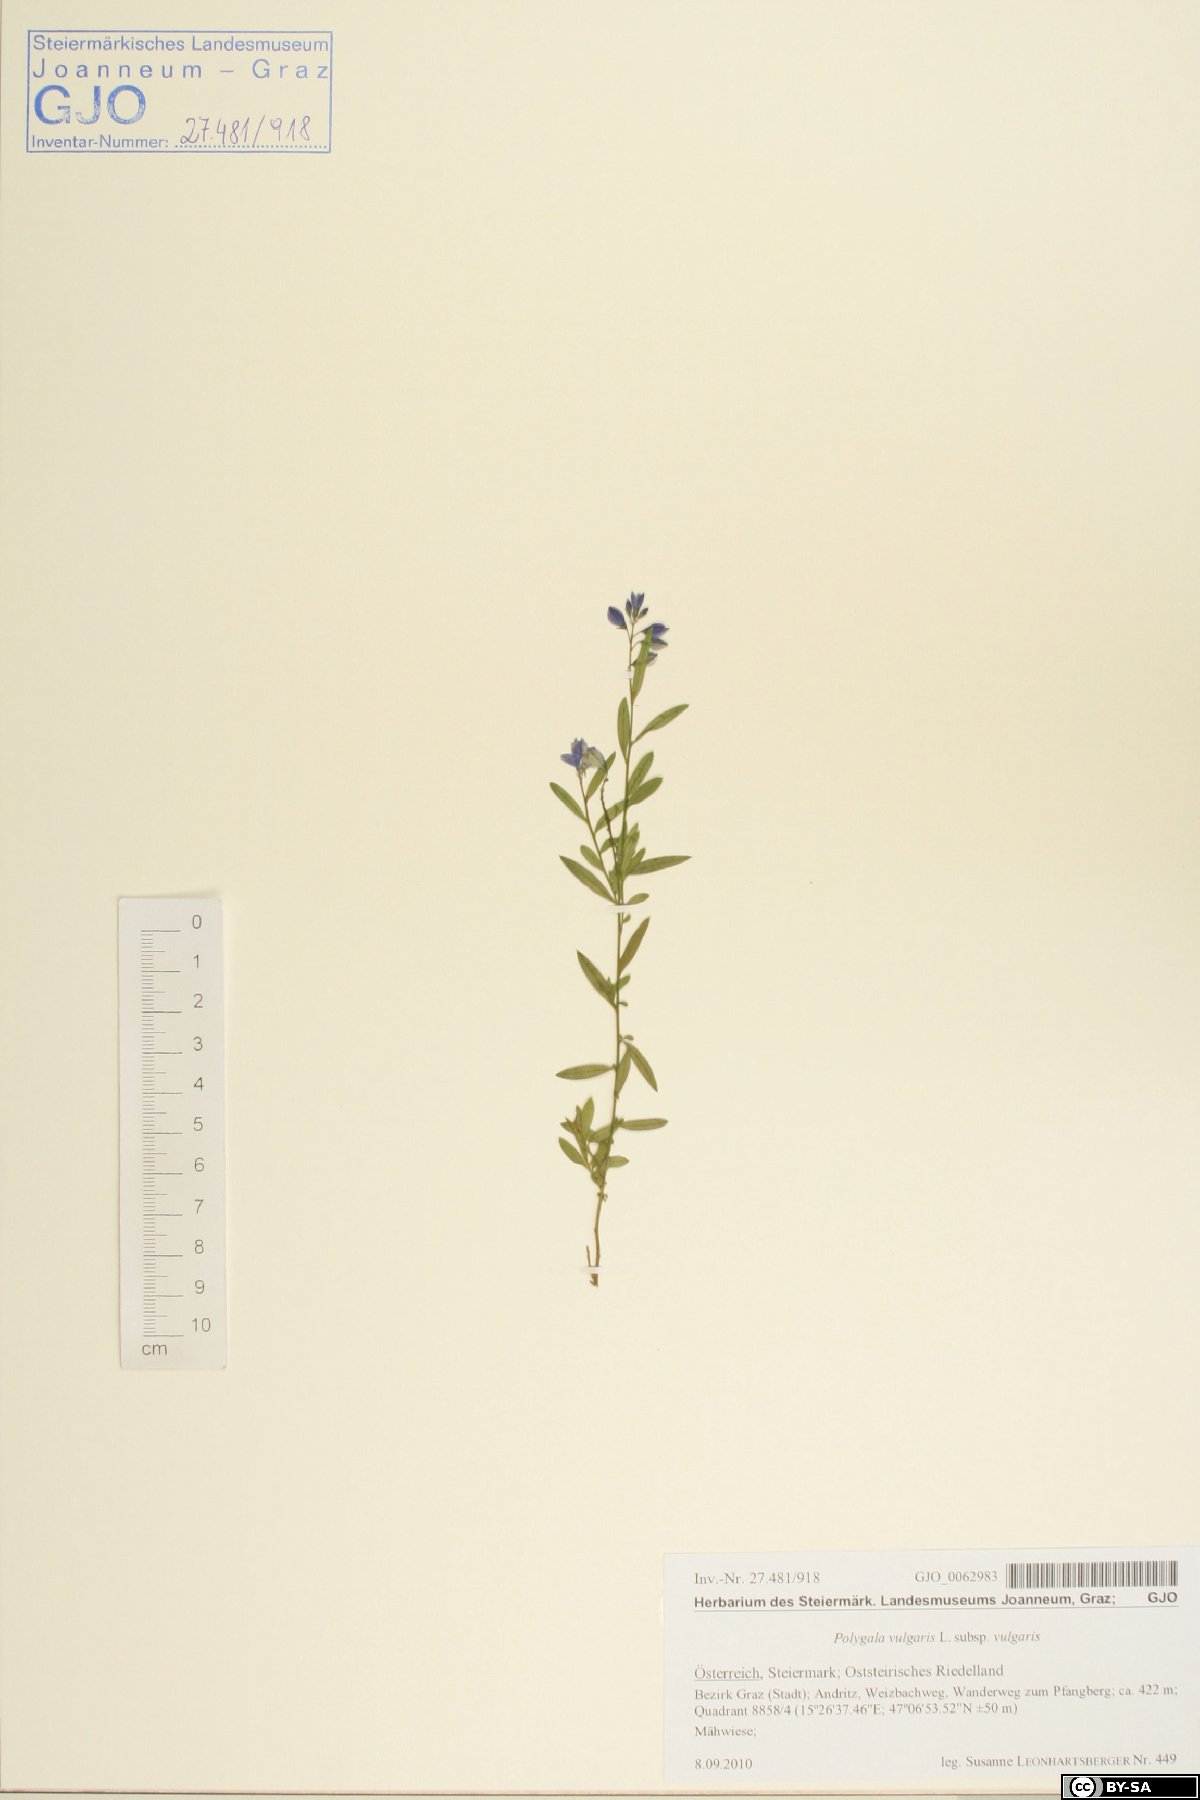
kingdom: Plantae
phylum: Tracheophyta
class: Magnoliopsida
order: Fabales
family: Polygalaceae
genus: Polygala
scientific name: Polygala vulgaris
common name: Common milkwort
